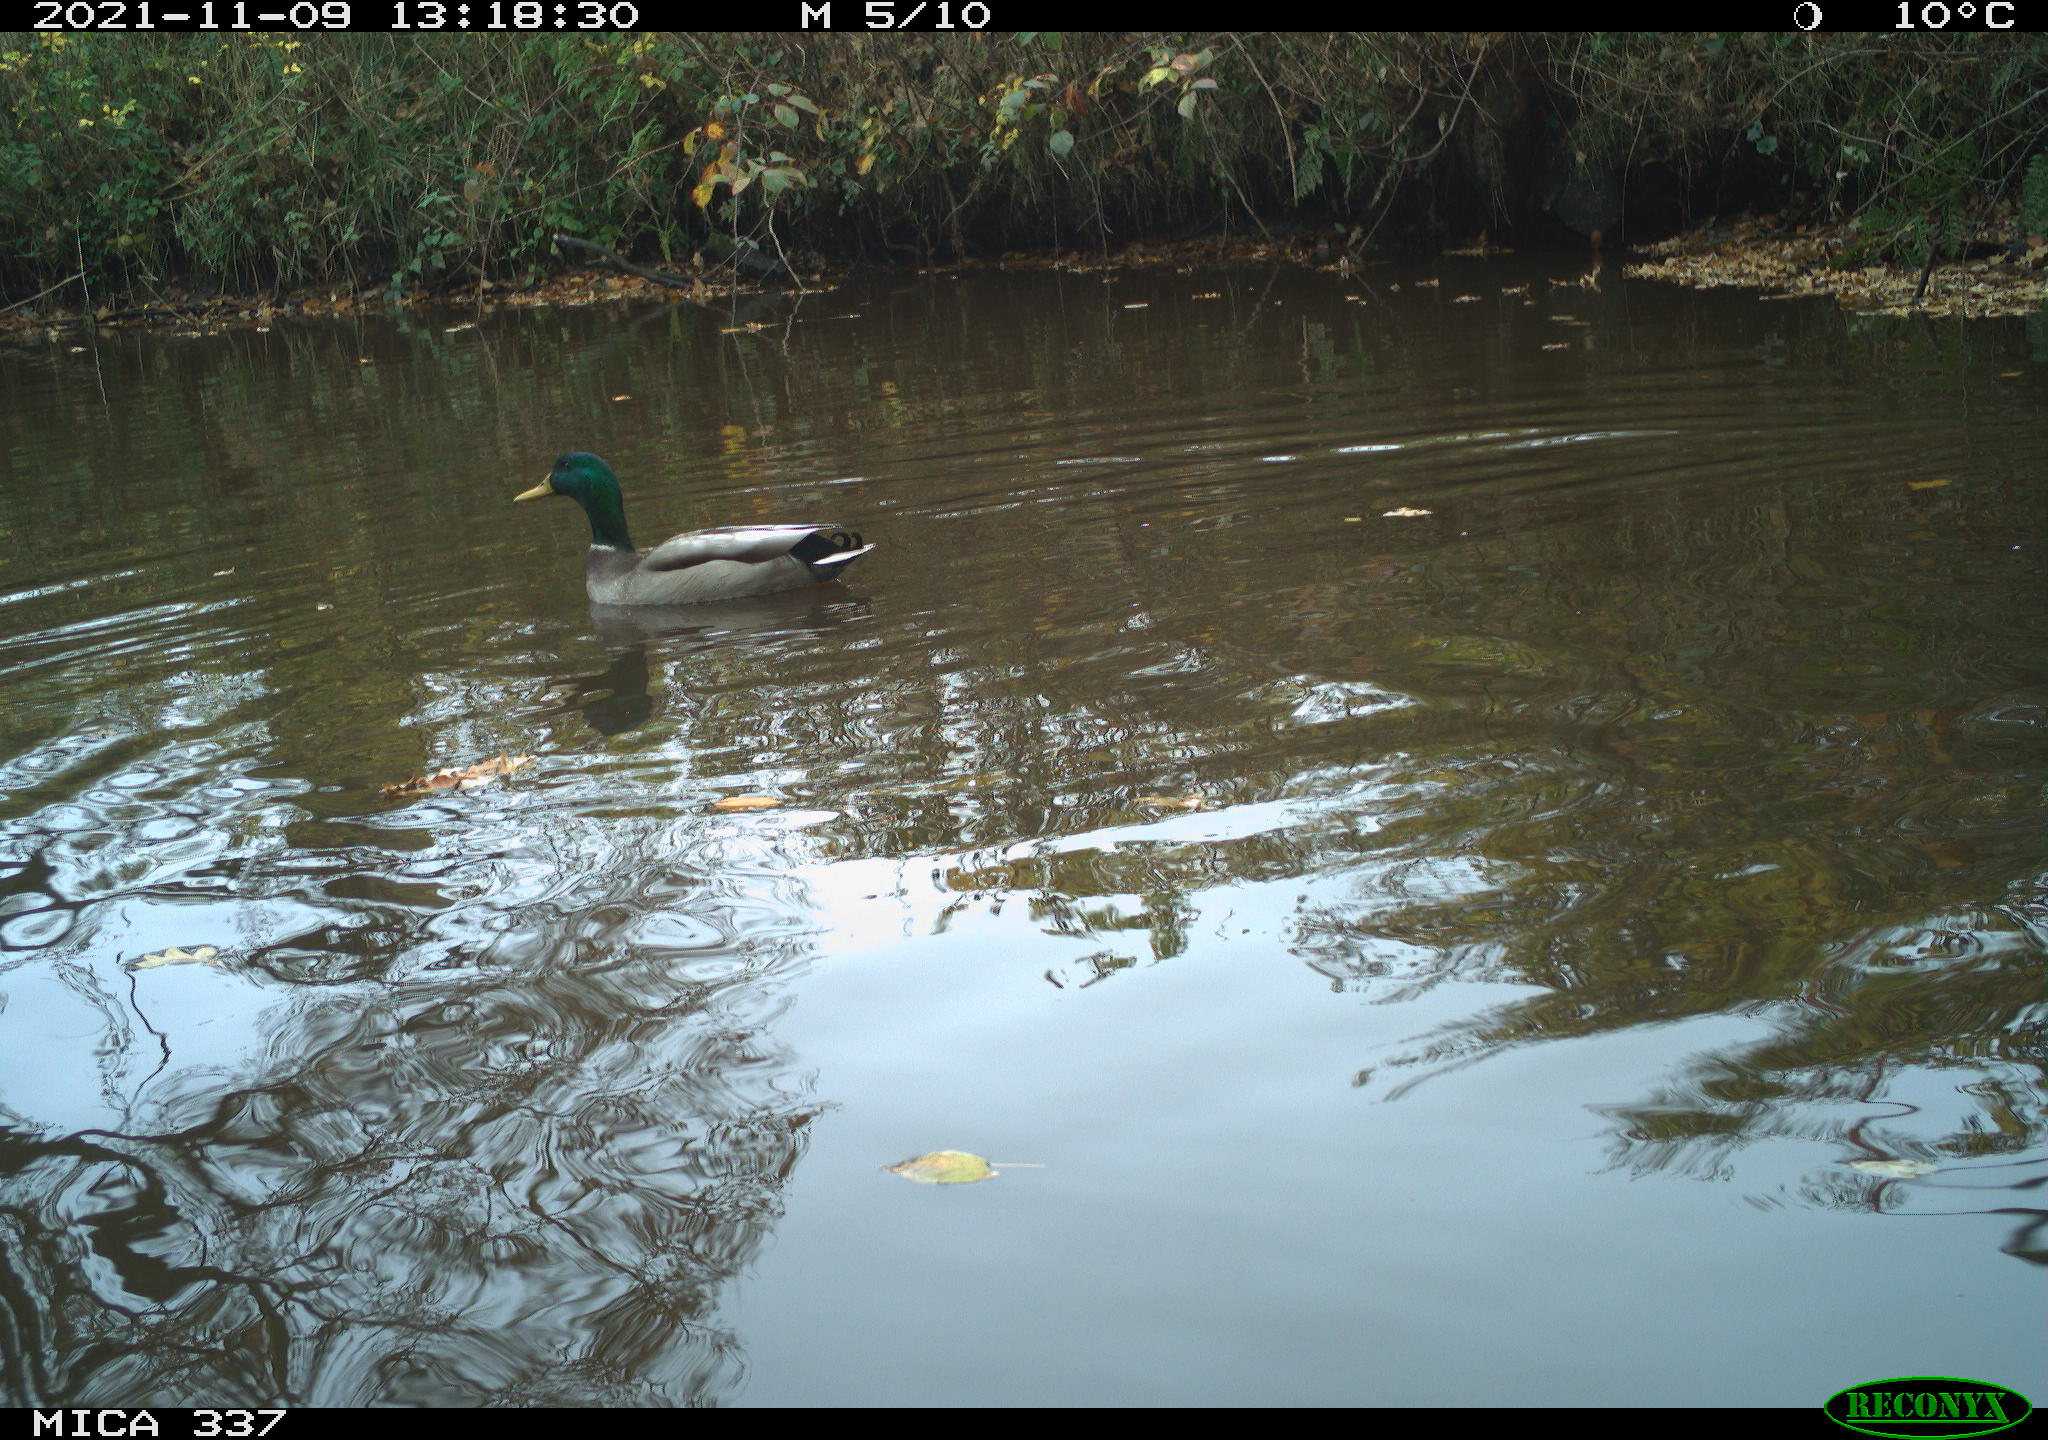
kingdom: Animalia
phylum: Chordata
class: Aves
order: Anseriformes
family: Anatidae
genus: Anas
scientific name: Anas platyrhynchos
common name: Mallard
